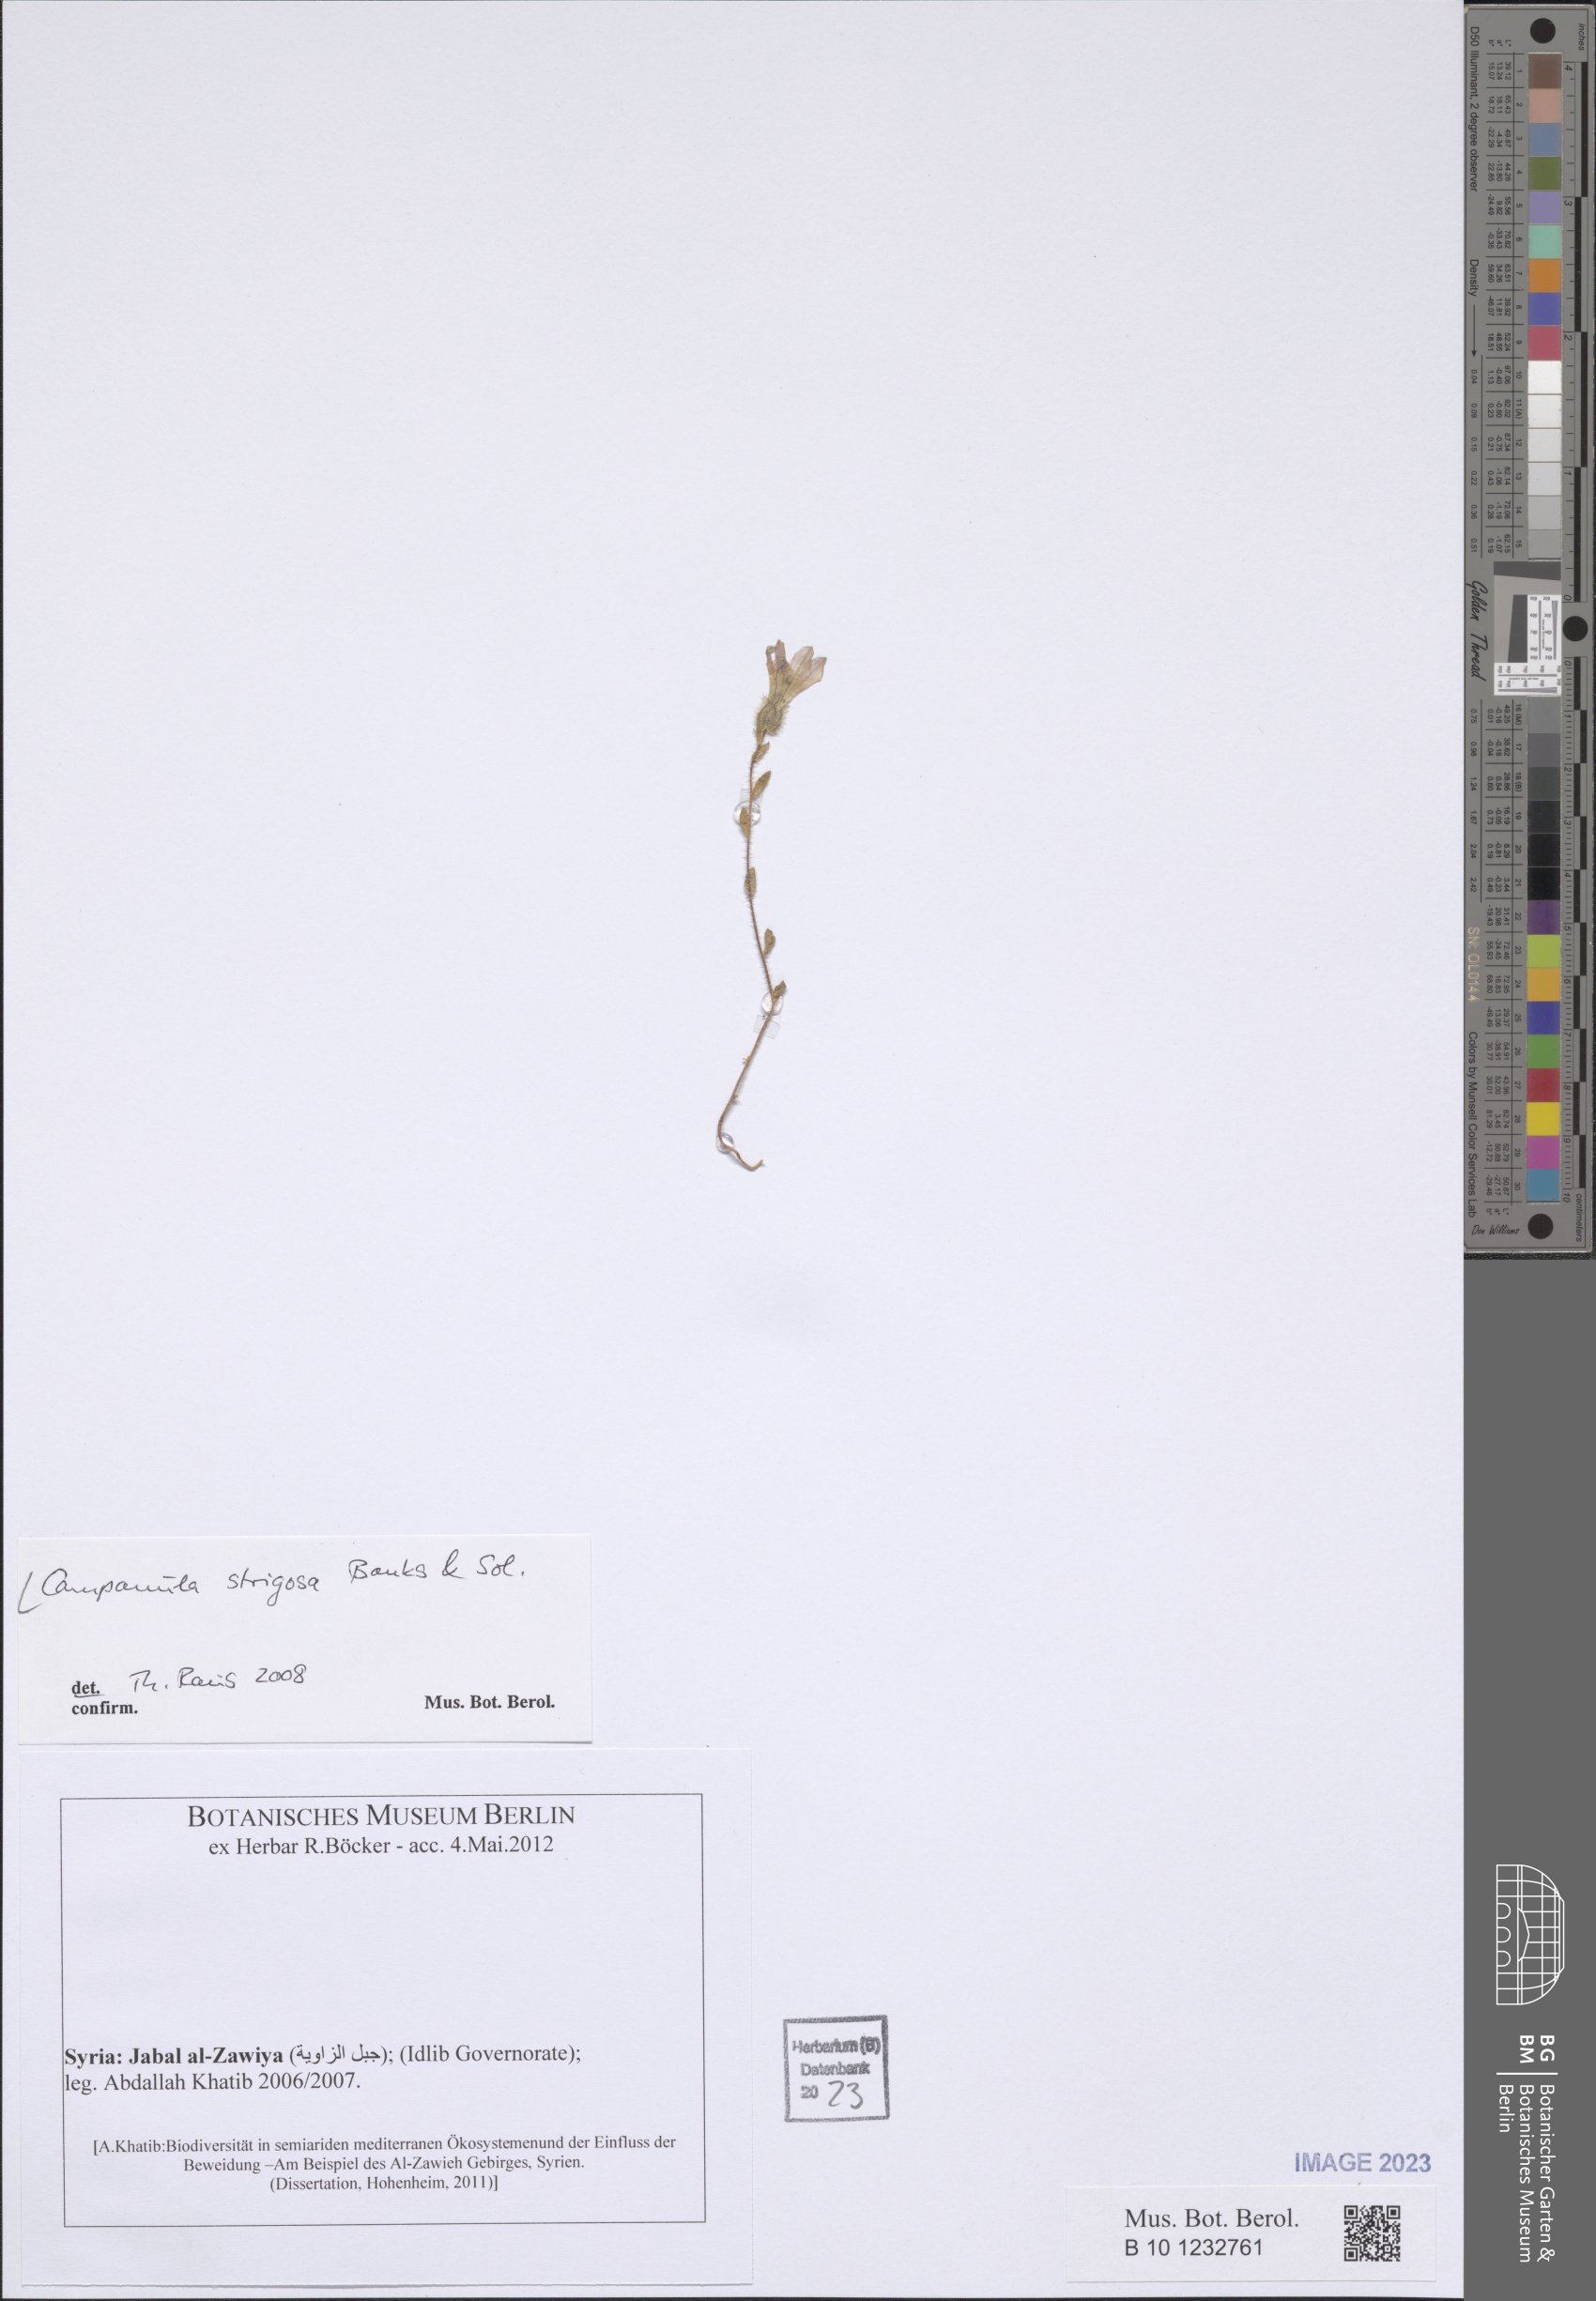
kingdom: Plantae
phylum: Tracheophyta
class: Magnoliopsida
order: Asterales
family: Campanulaceae
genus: Campanula
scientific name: Campanula strigosa
